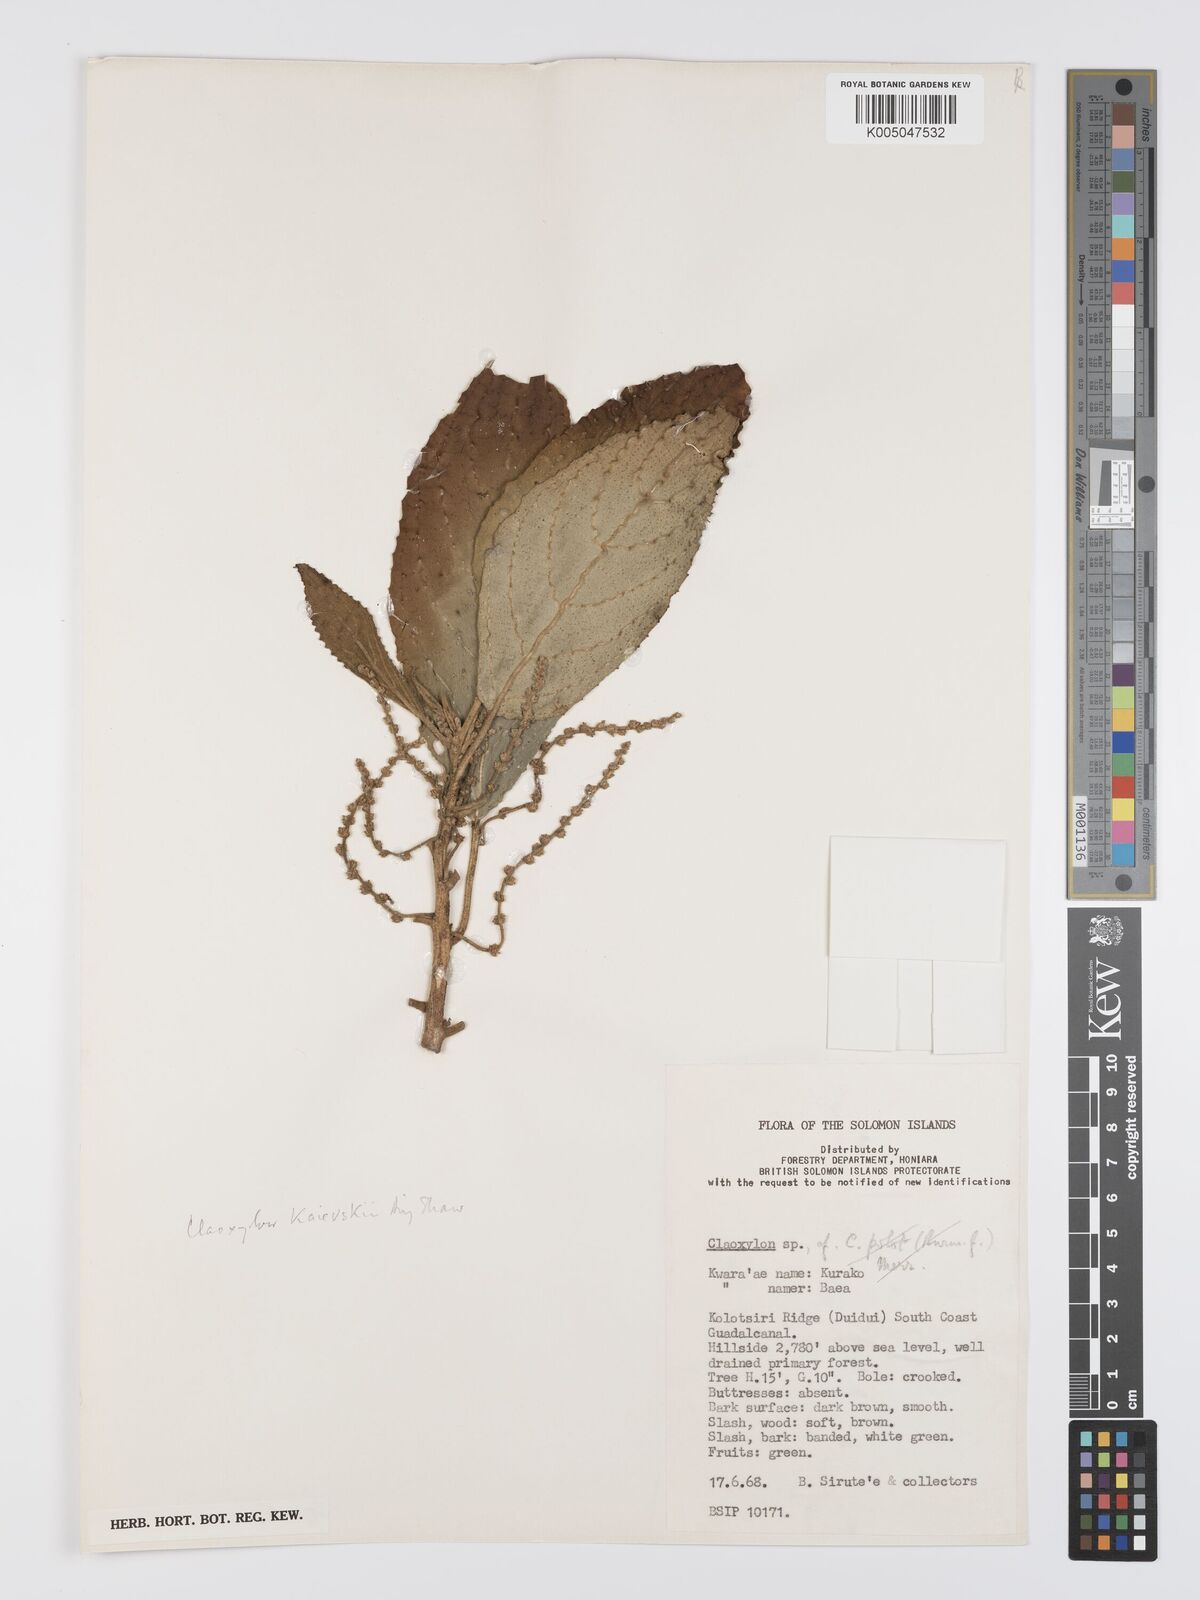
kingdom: Plantae
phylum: Tracheophyta
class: Magnoliopsida
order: Malpighiales
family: Euphorbiaceae
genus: Claoxylon
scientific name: Claoxylon kaievskii
